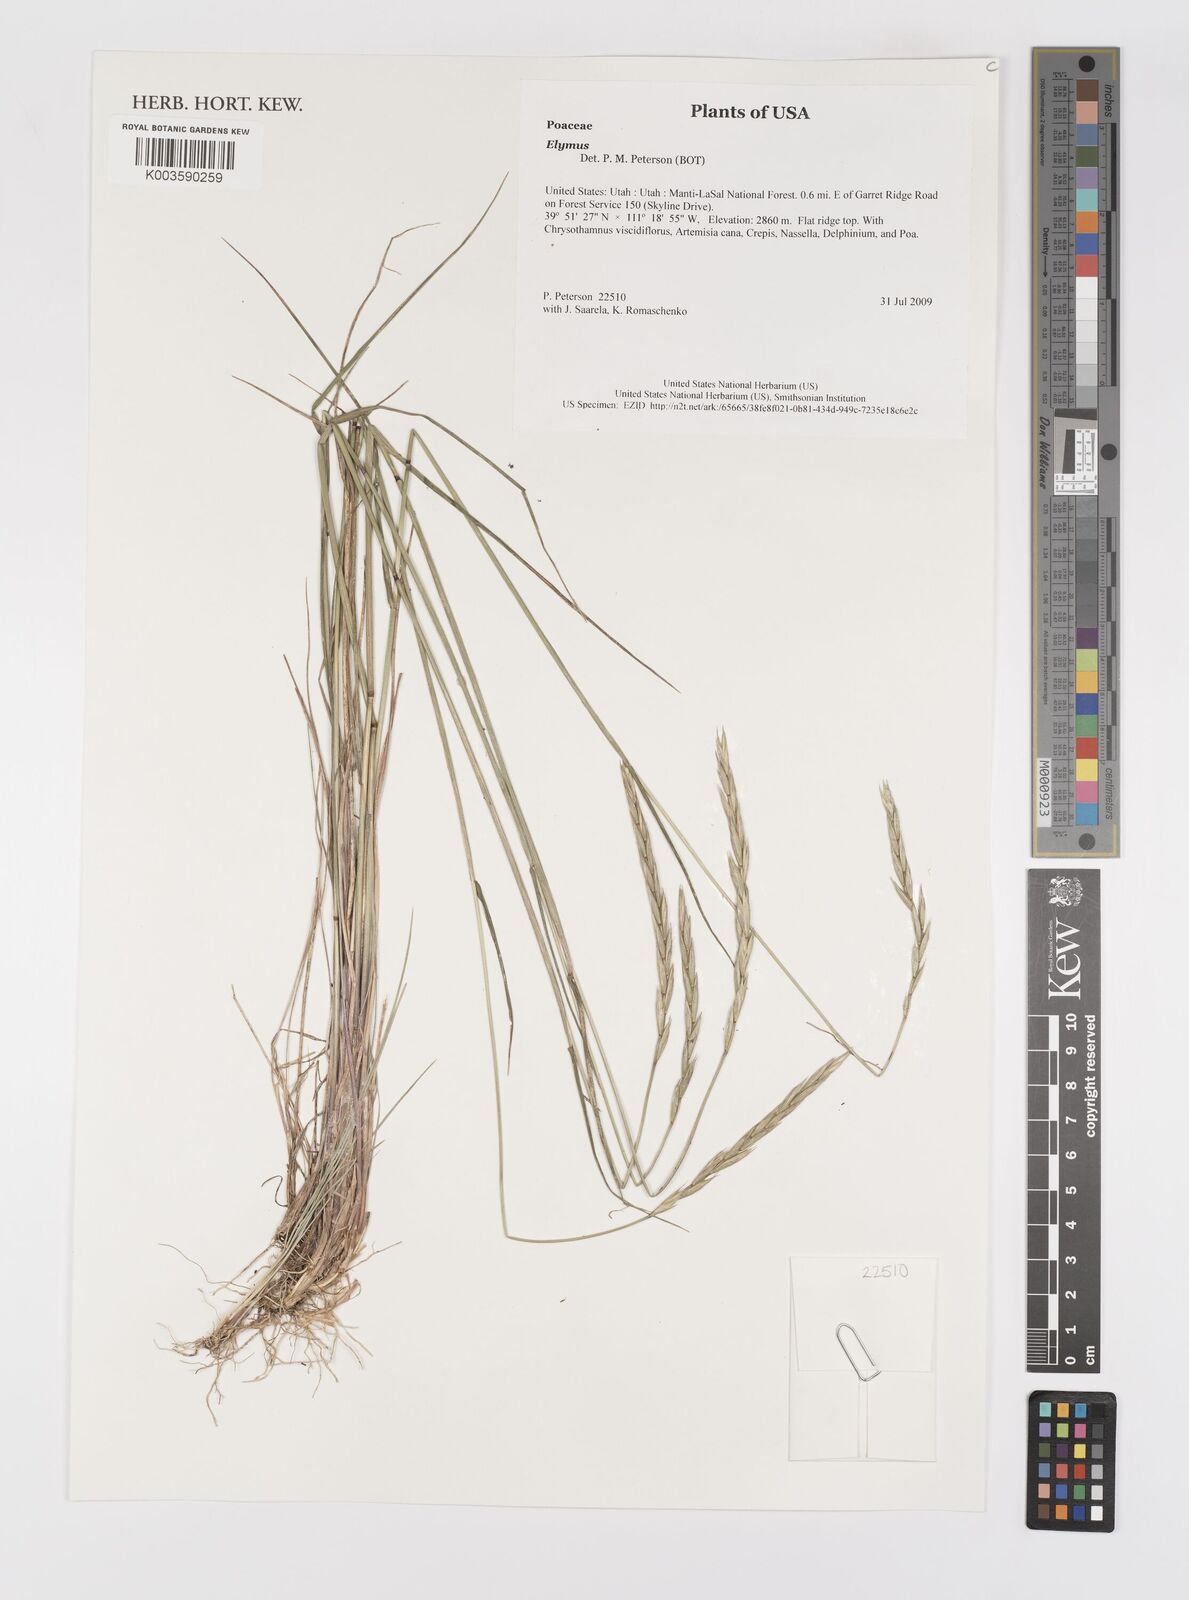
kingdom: Plantae
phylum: Tracheophyta
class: Liliopsida
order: Poales
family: Poaceae
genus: Elymus
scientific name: Elymus
